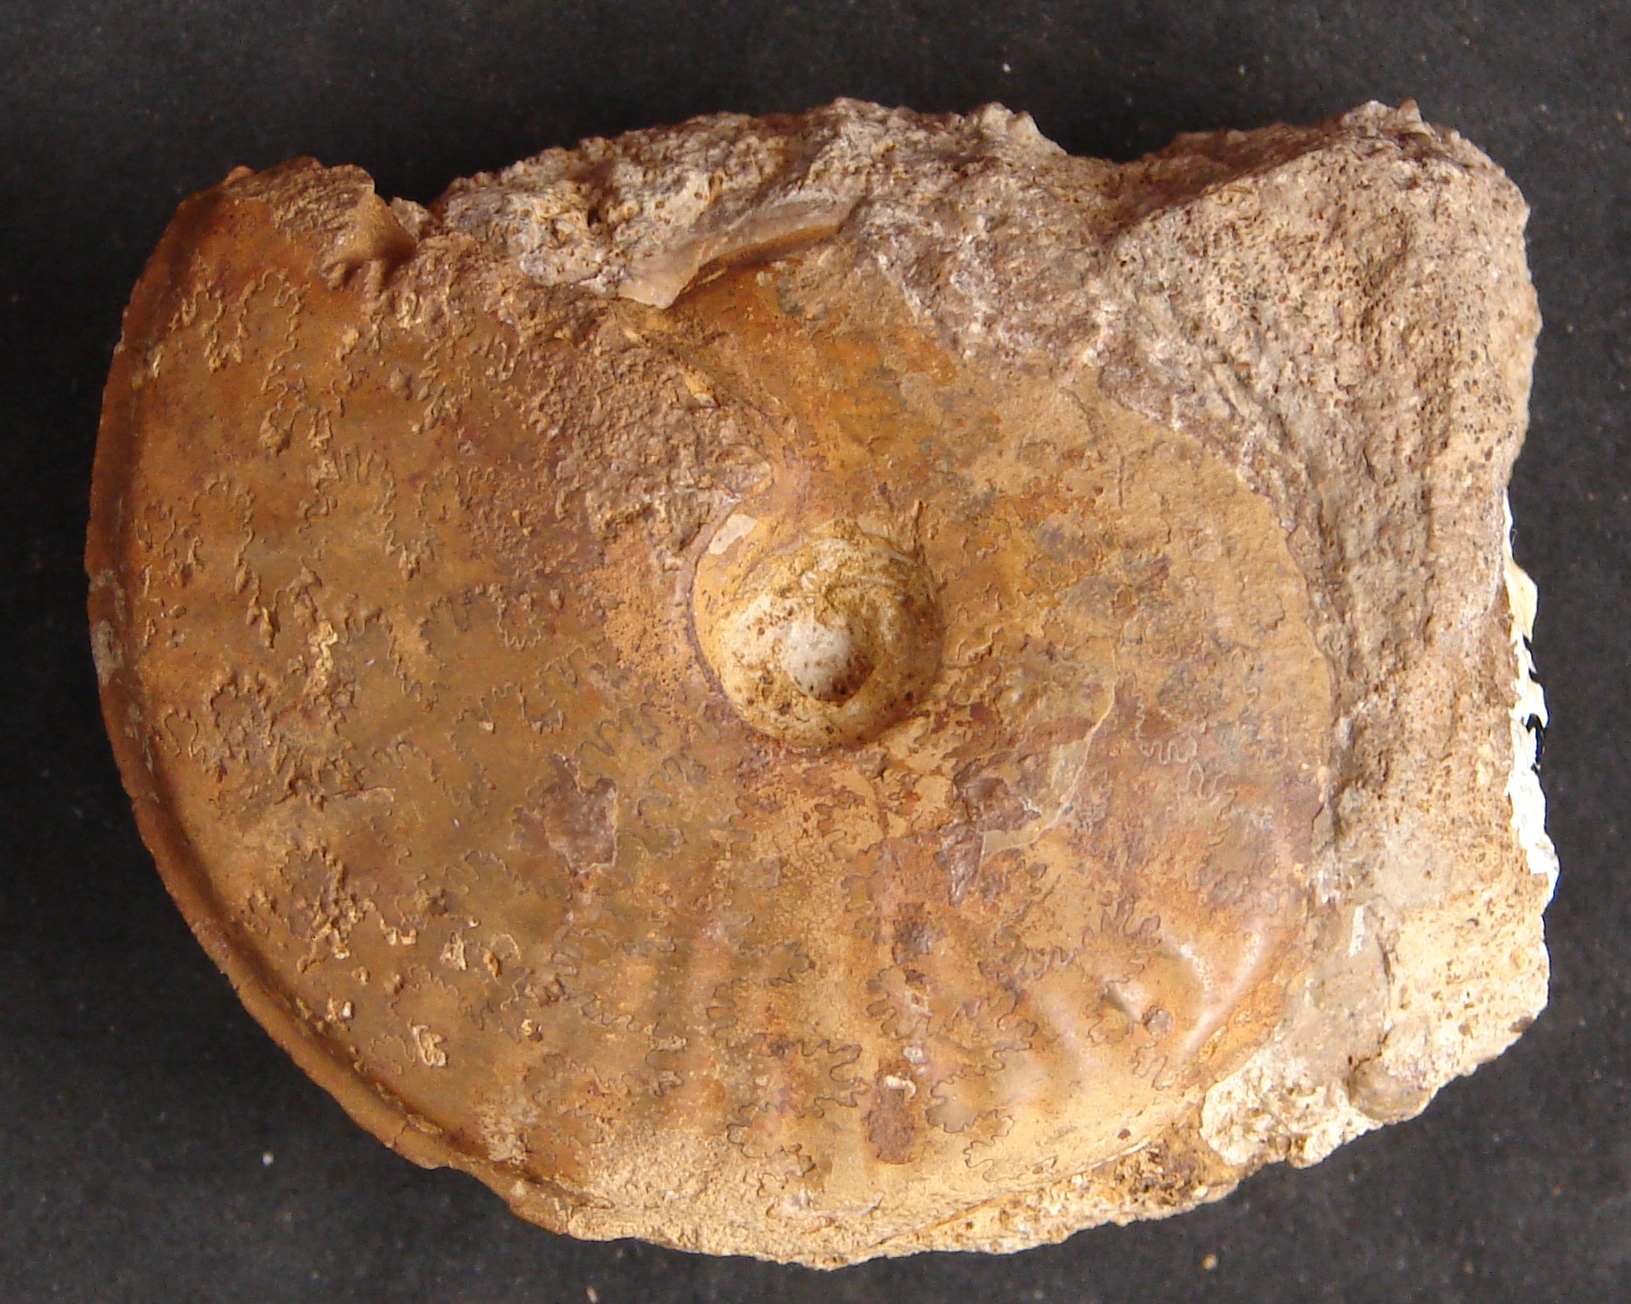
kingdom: Animalia
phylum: Mollusca
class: Cephalopoda
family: Graphoceratidae
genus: Hyperlioceras
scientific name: Hyperlioceras
